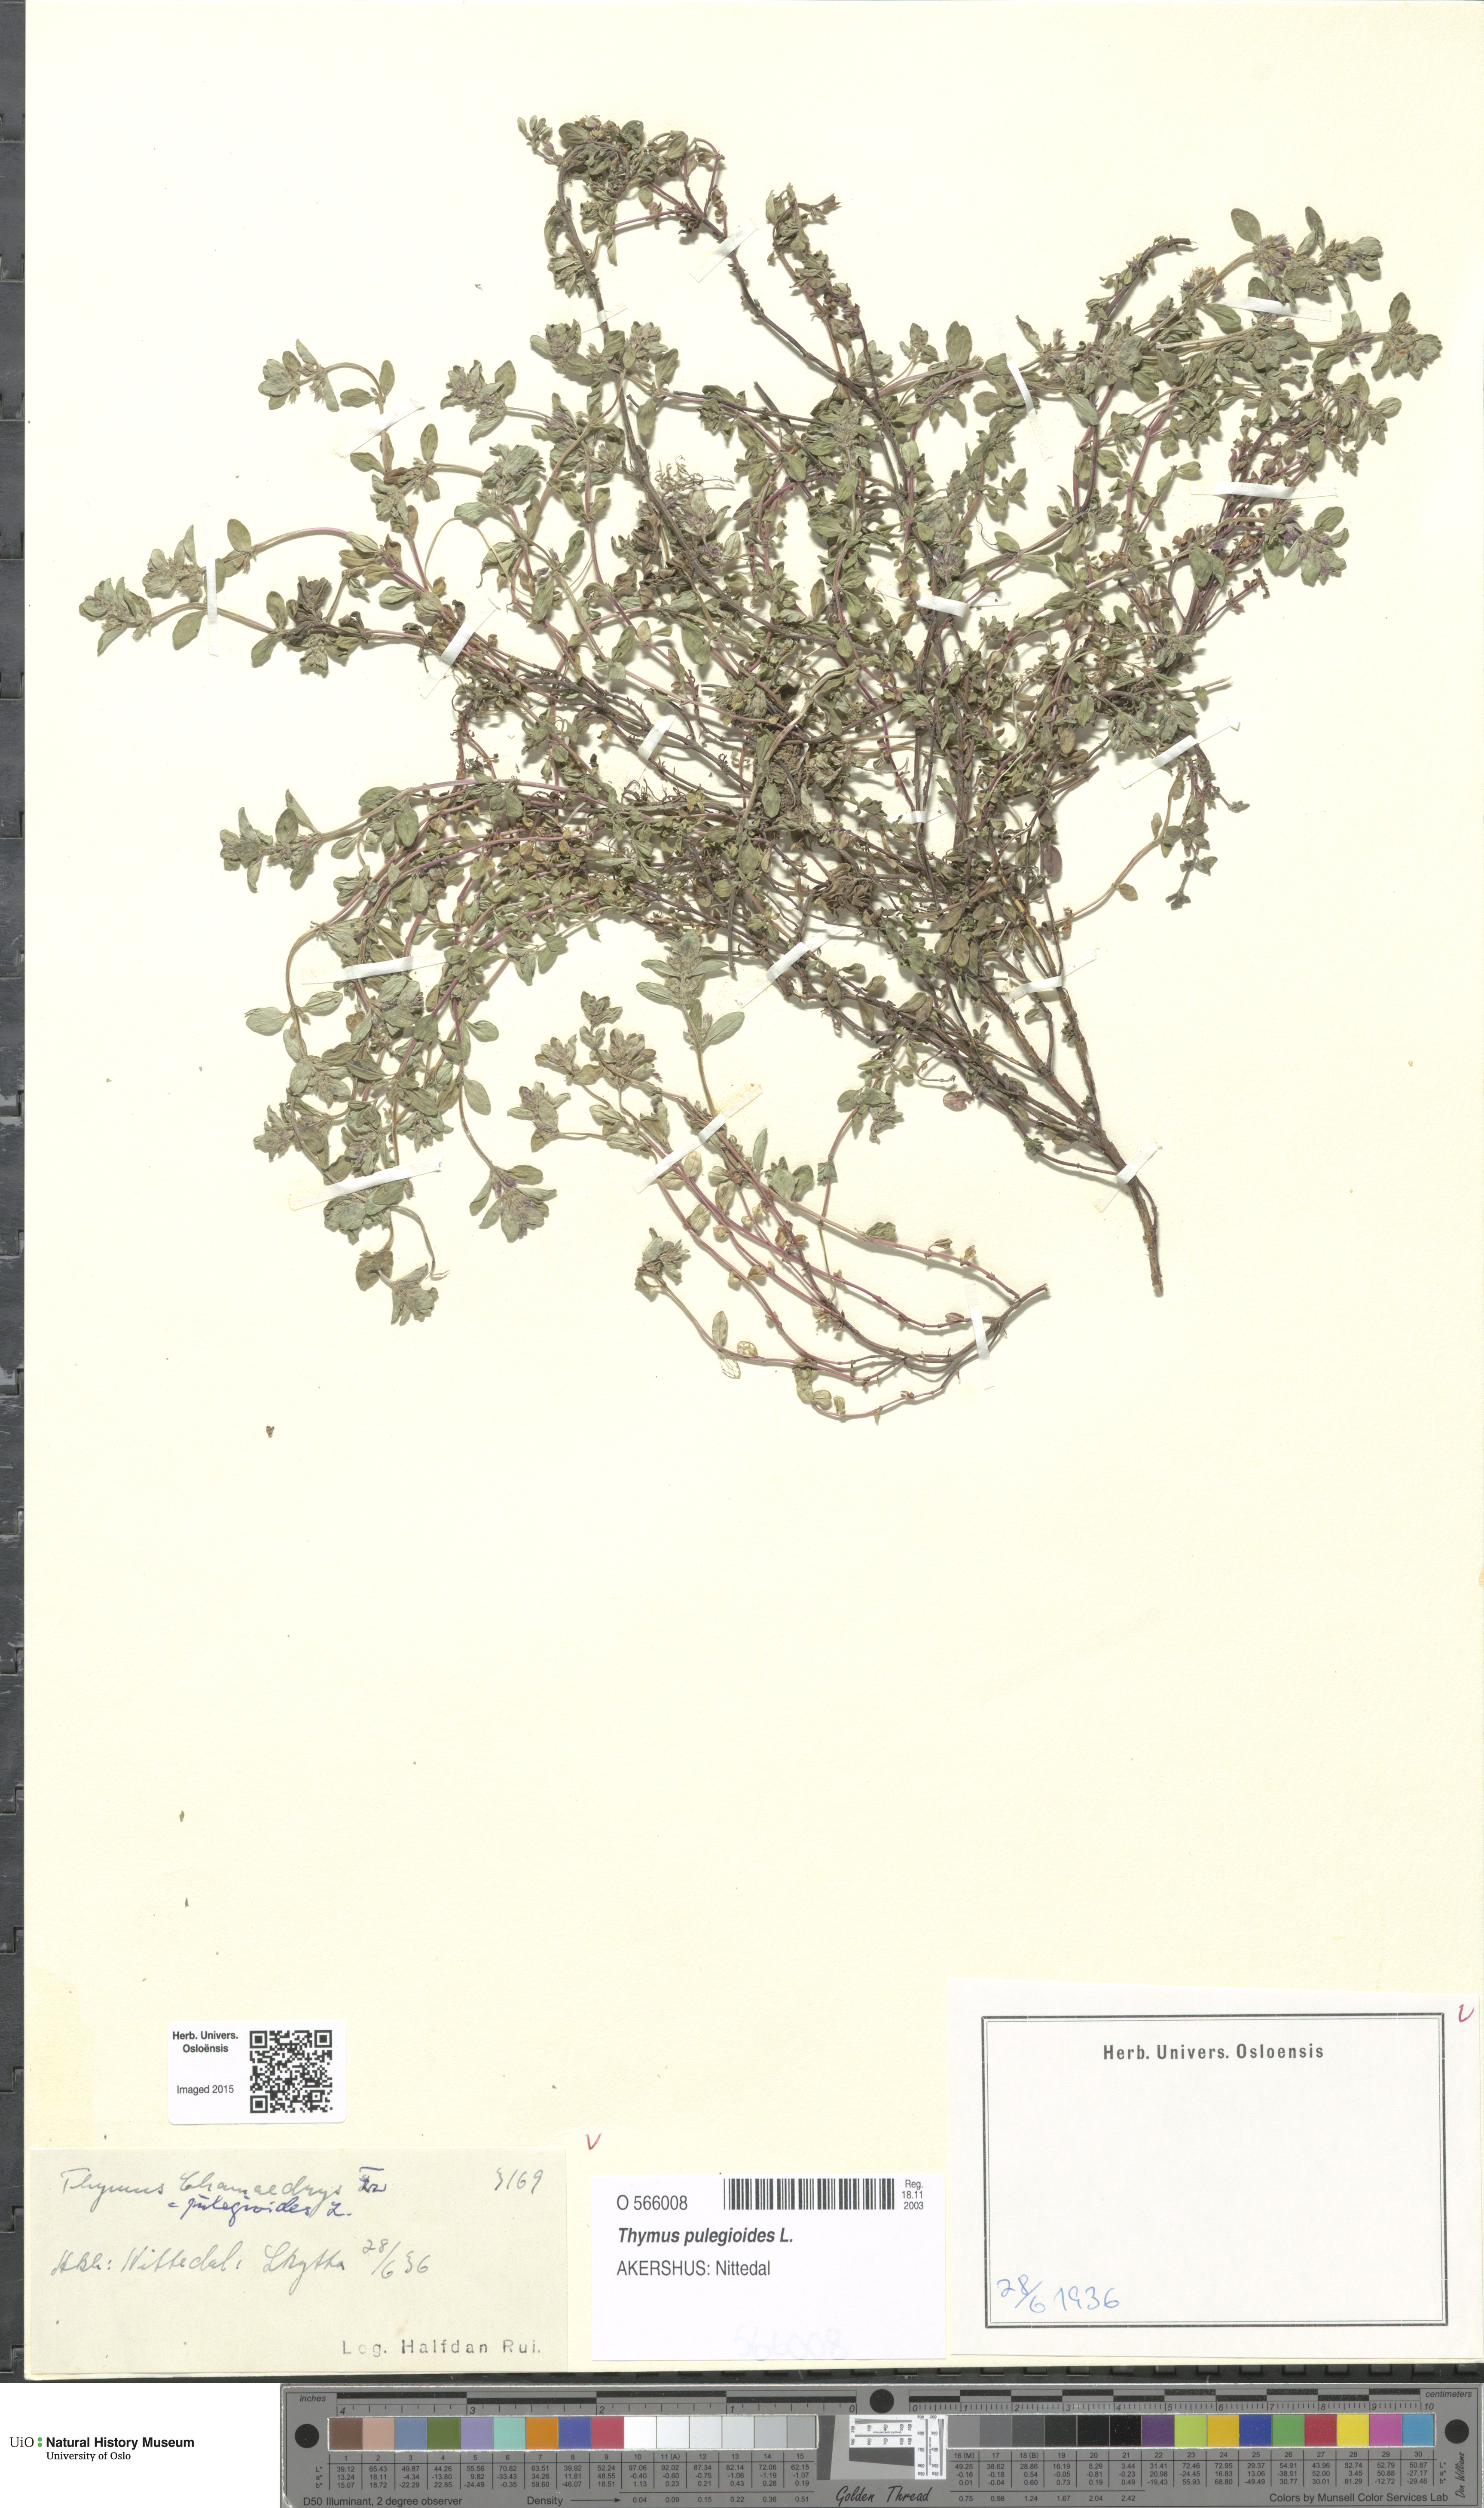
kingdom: Plantae
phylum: Tracheophyta
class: Magnoliopsida
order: Lamiales
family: Lamiaceae
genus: Thymus
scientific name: Thymus pulegioides
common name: Large thyme
